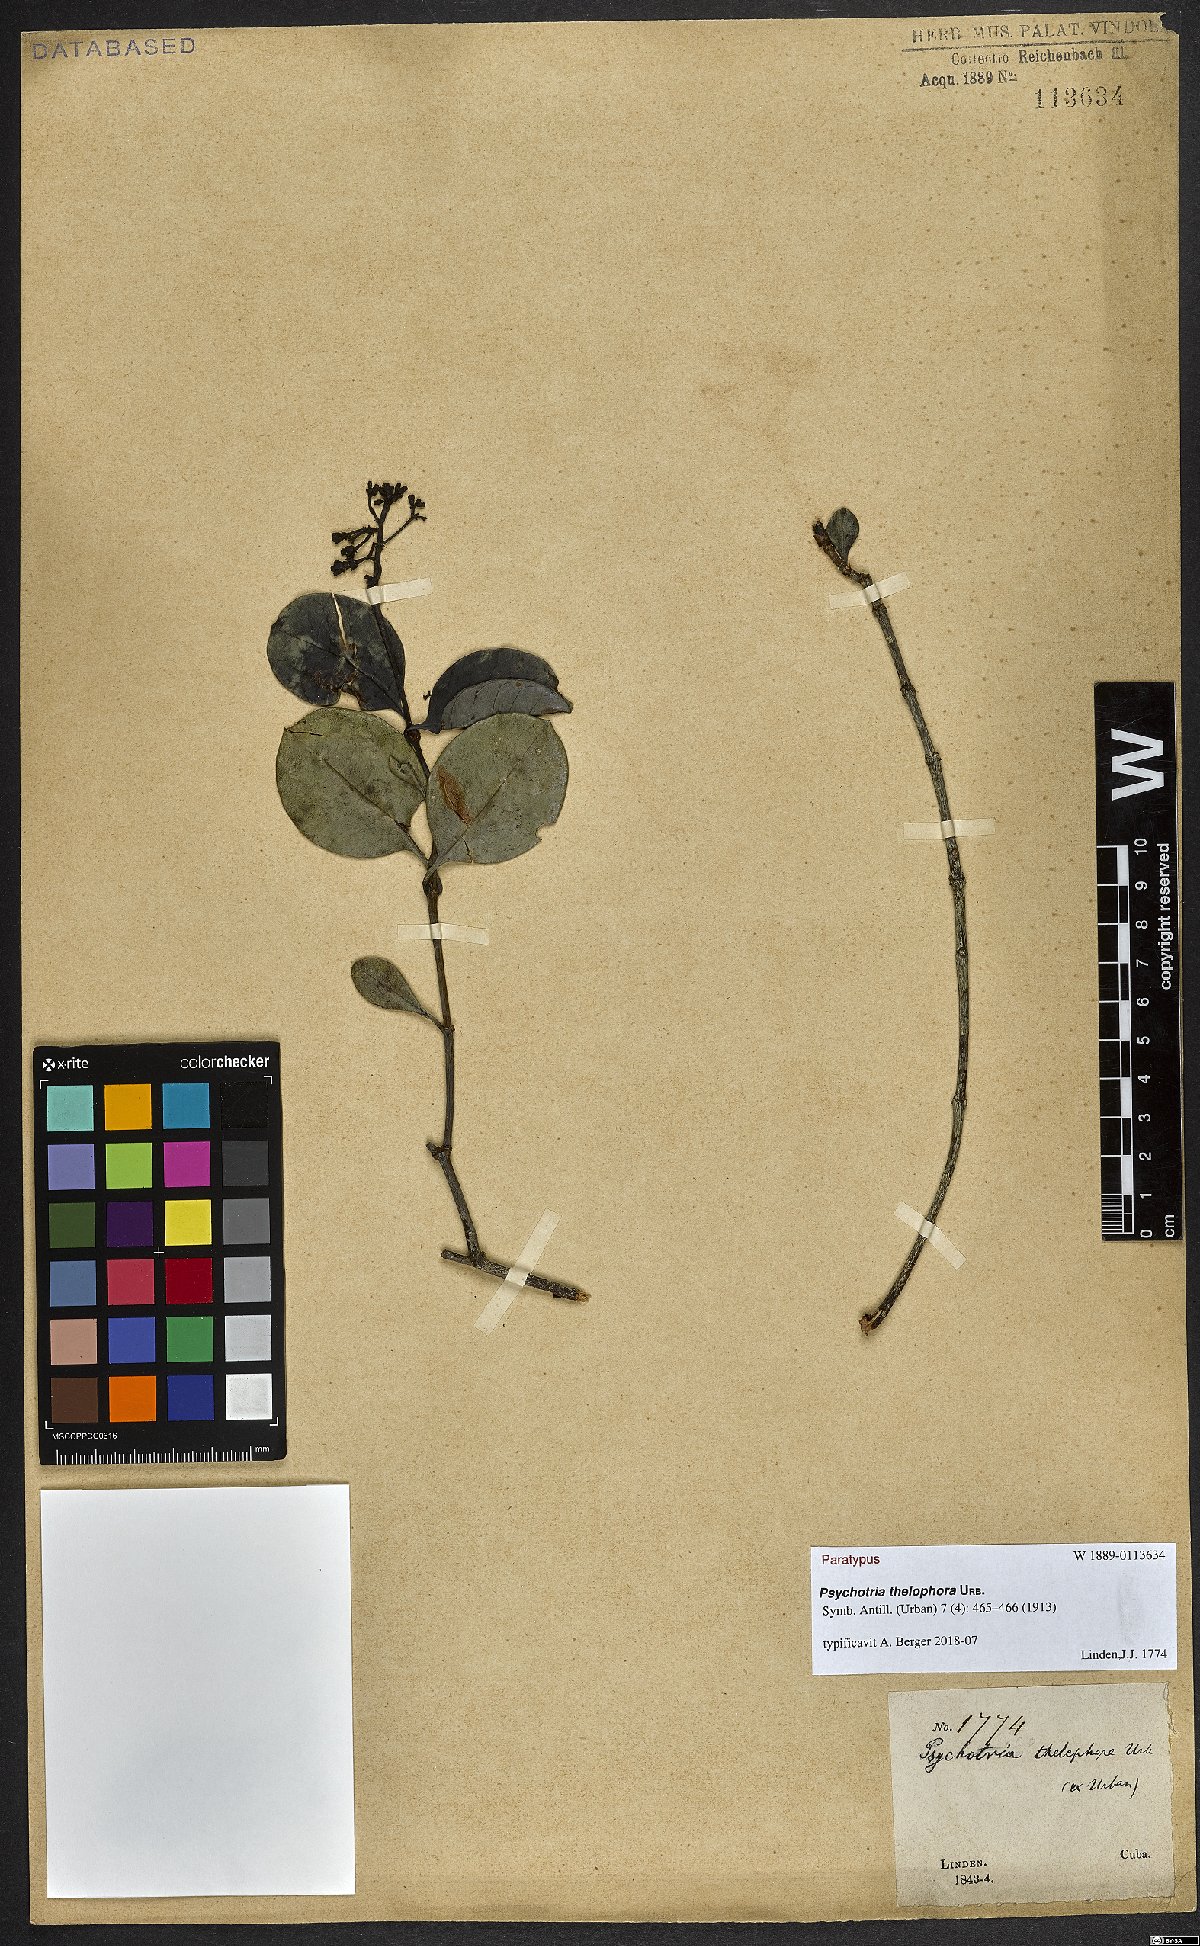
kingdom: Plantae
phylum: Tracheophyta
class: Magnoliopsida
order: Gentianales
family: Rubiaceae
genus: Psychotria
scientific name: Psychotria thelophora
